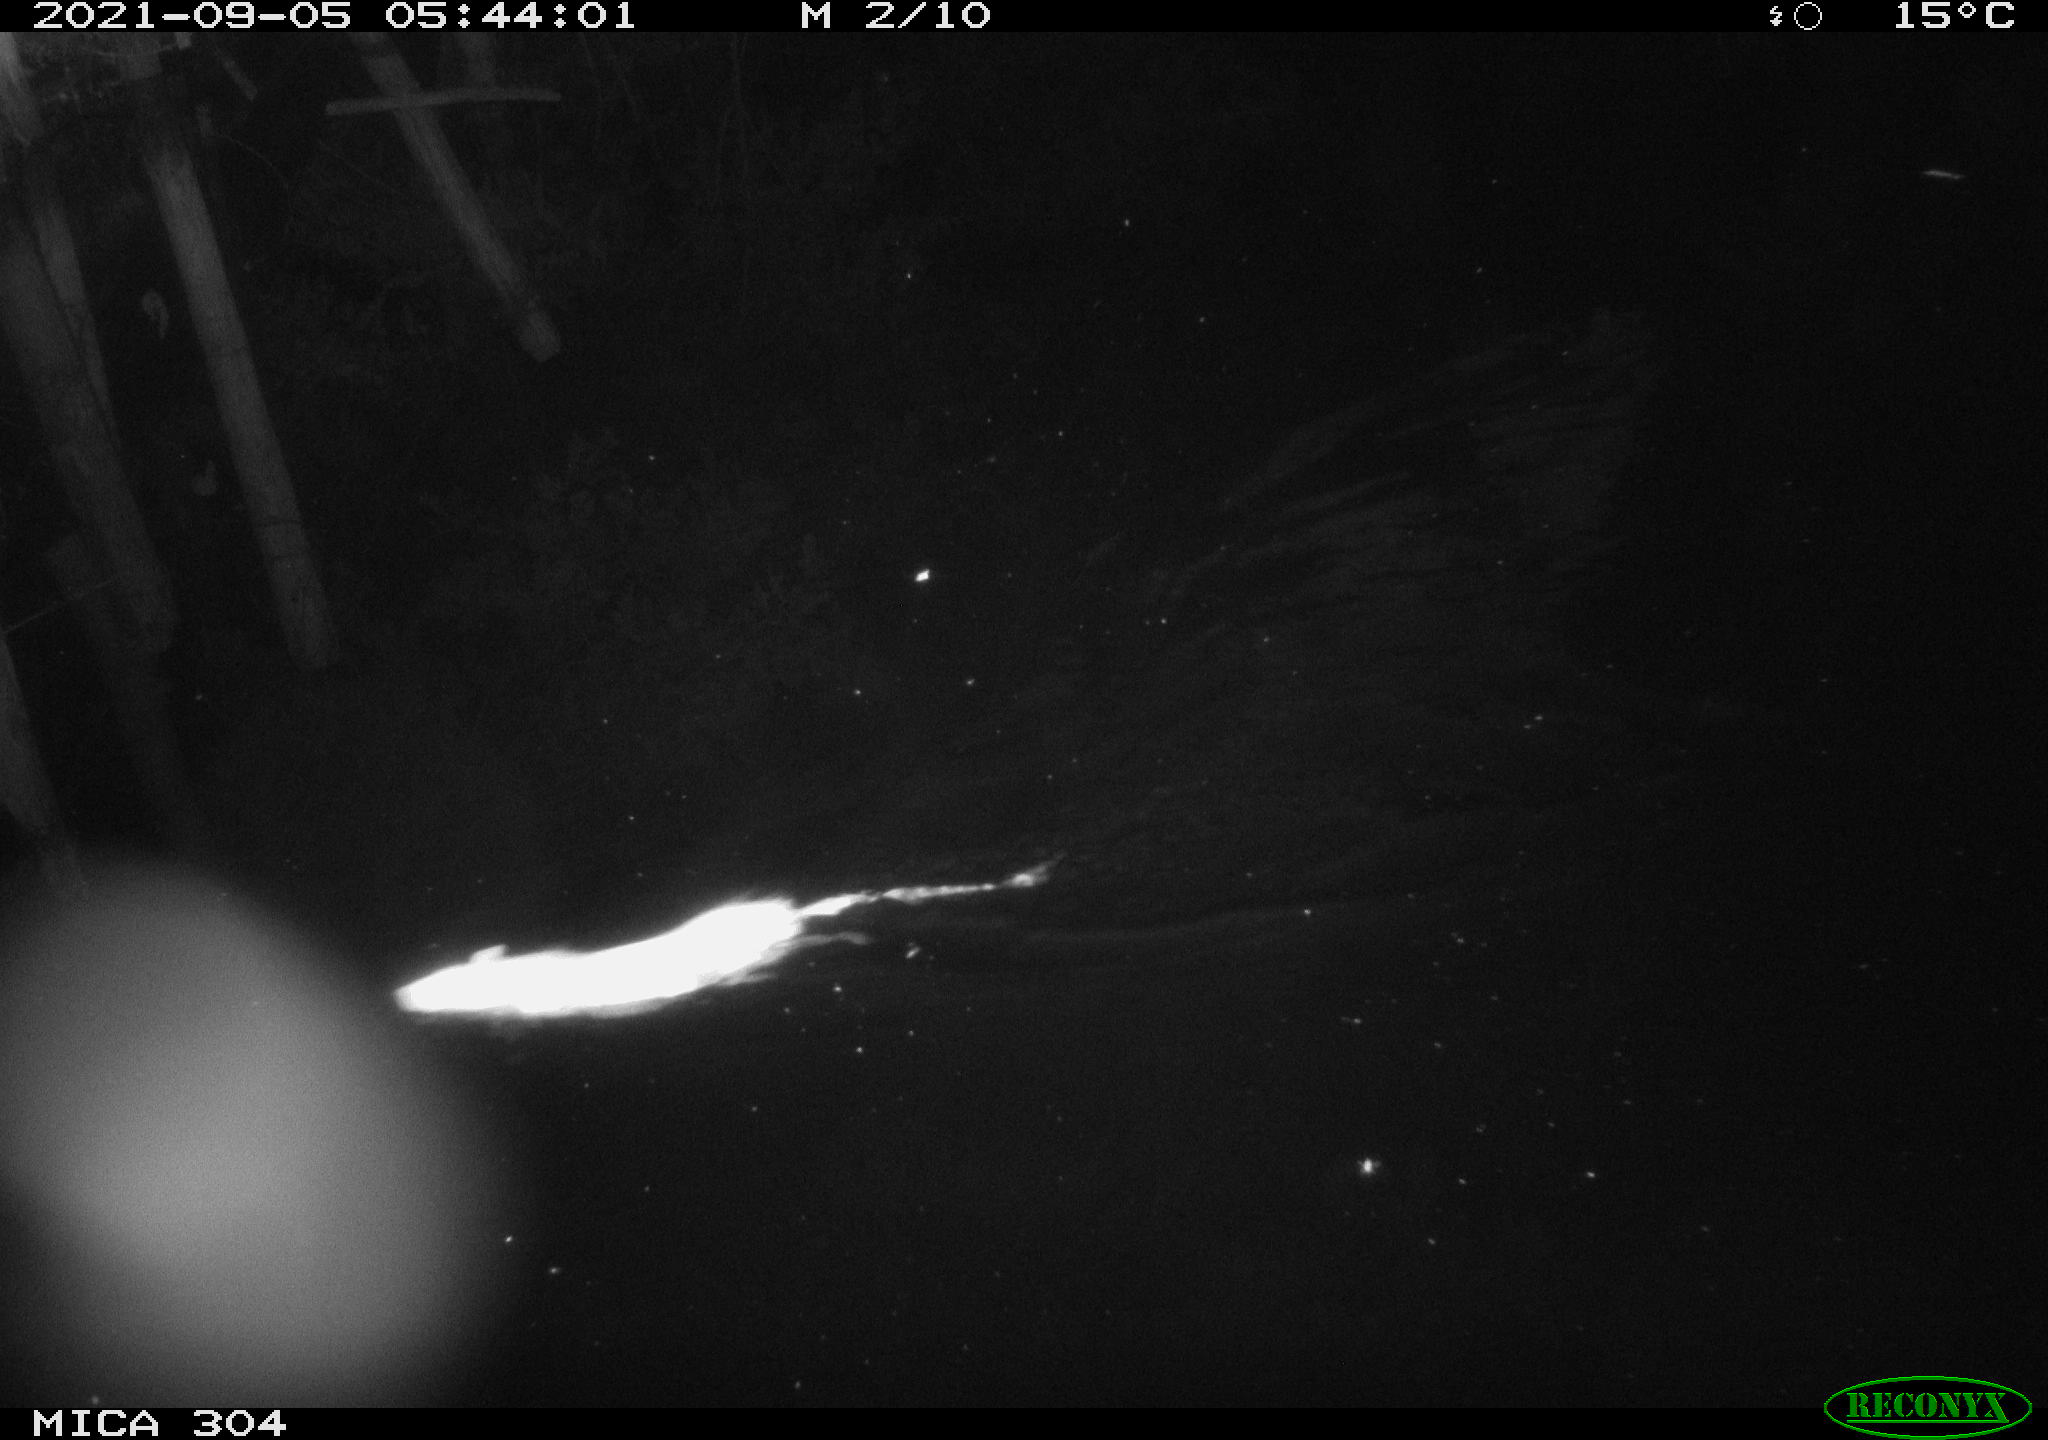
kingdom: Animalia
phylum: Chordata
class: Mammalia
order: Rodentia
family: Muridae
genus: Rattus
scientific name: Rattus norvegicus
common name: Brown rat
